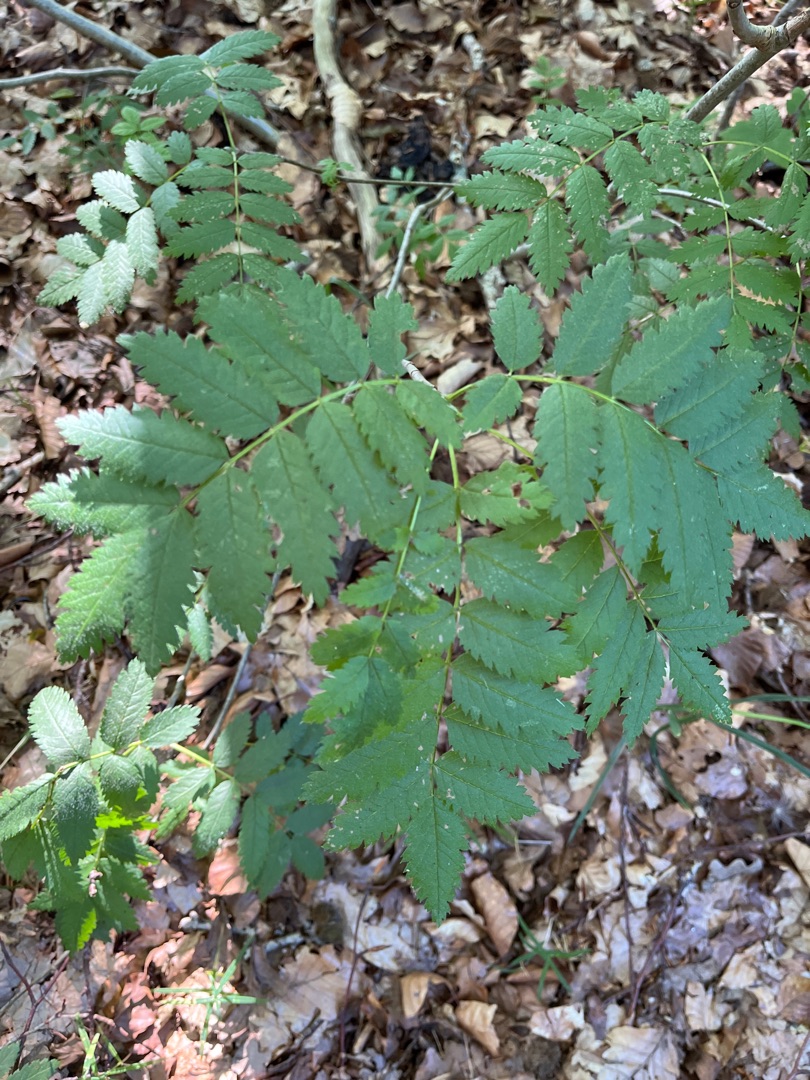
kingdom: Plantae
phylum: Tracheophyta
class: Magnoliopsida
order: Rosales
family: Rosaceae
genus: Sorbus
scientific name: Sorbus aucuparia
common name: Almindelig røn
